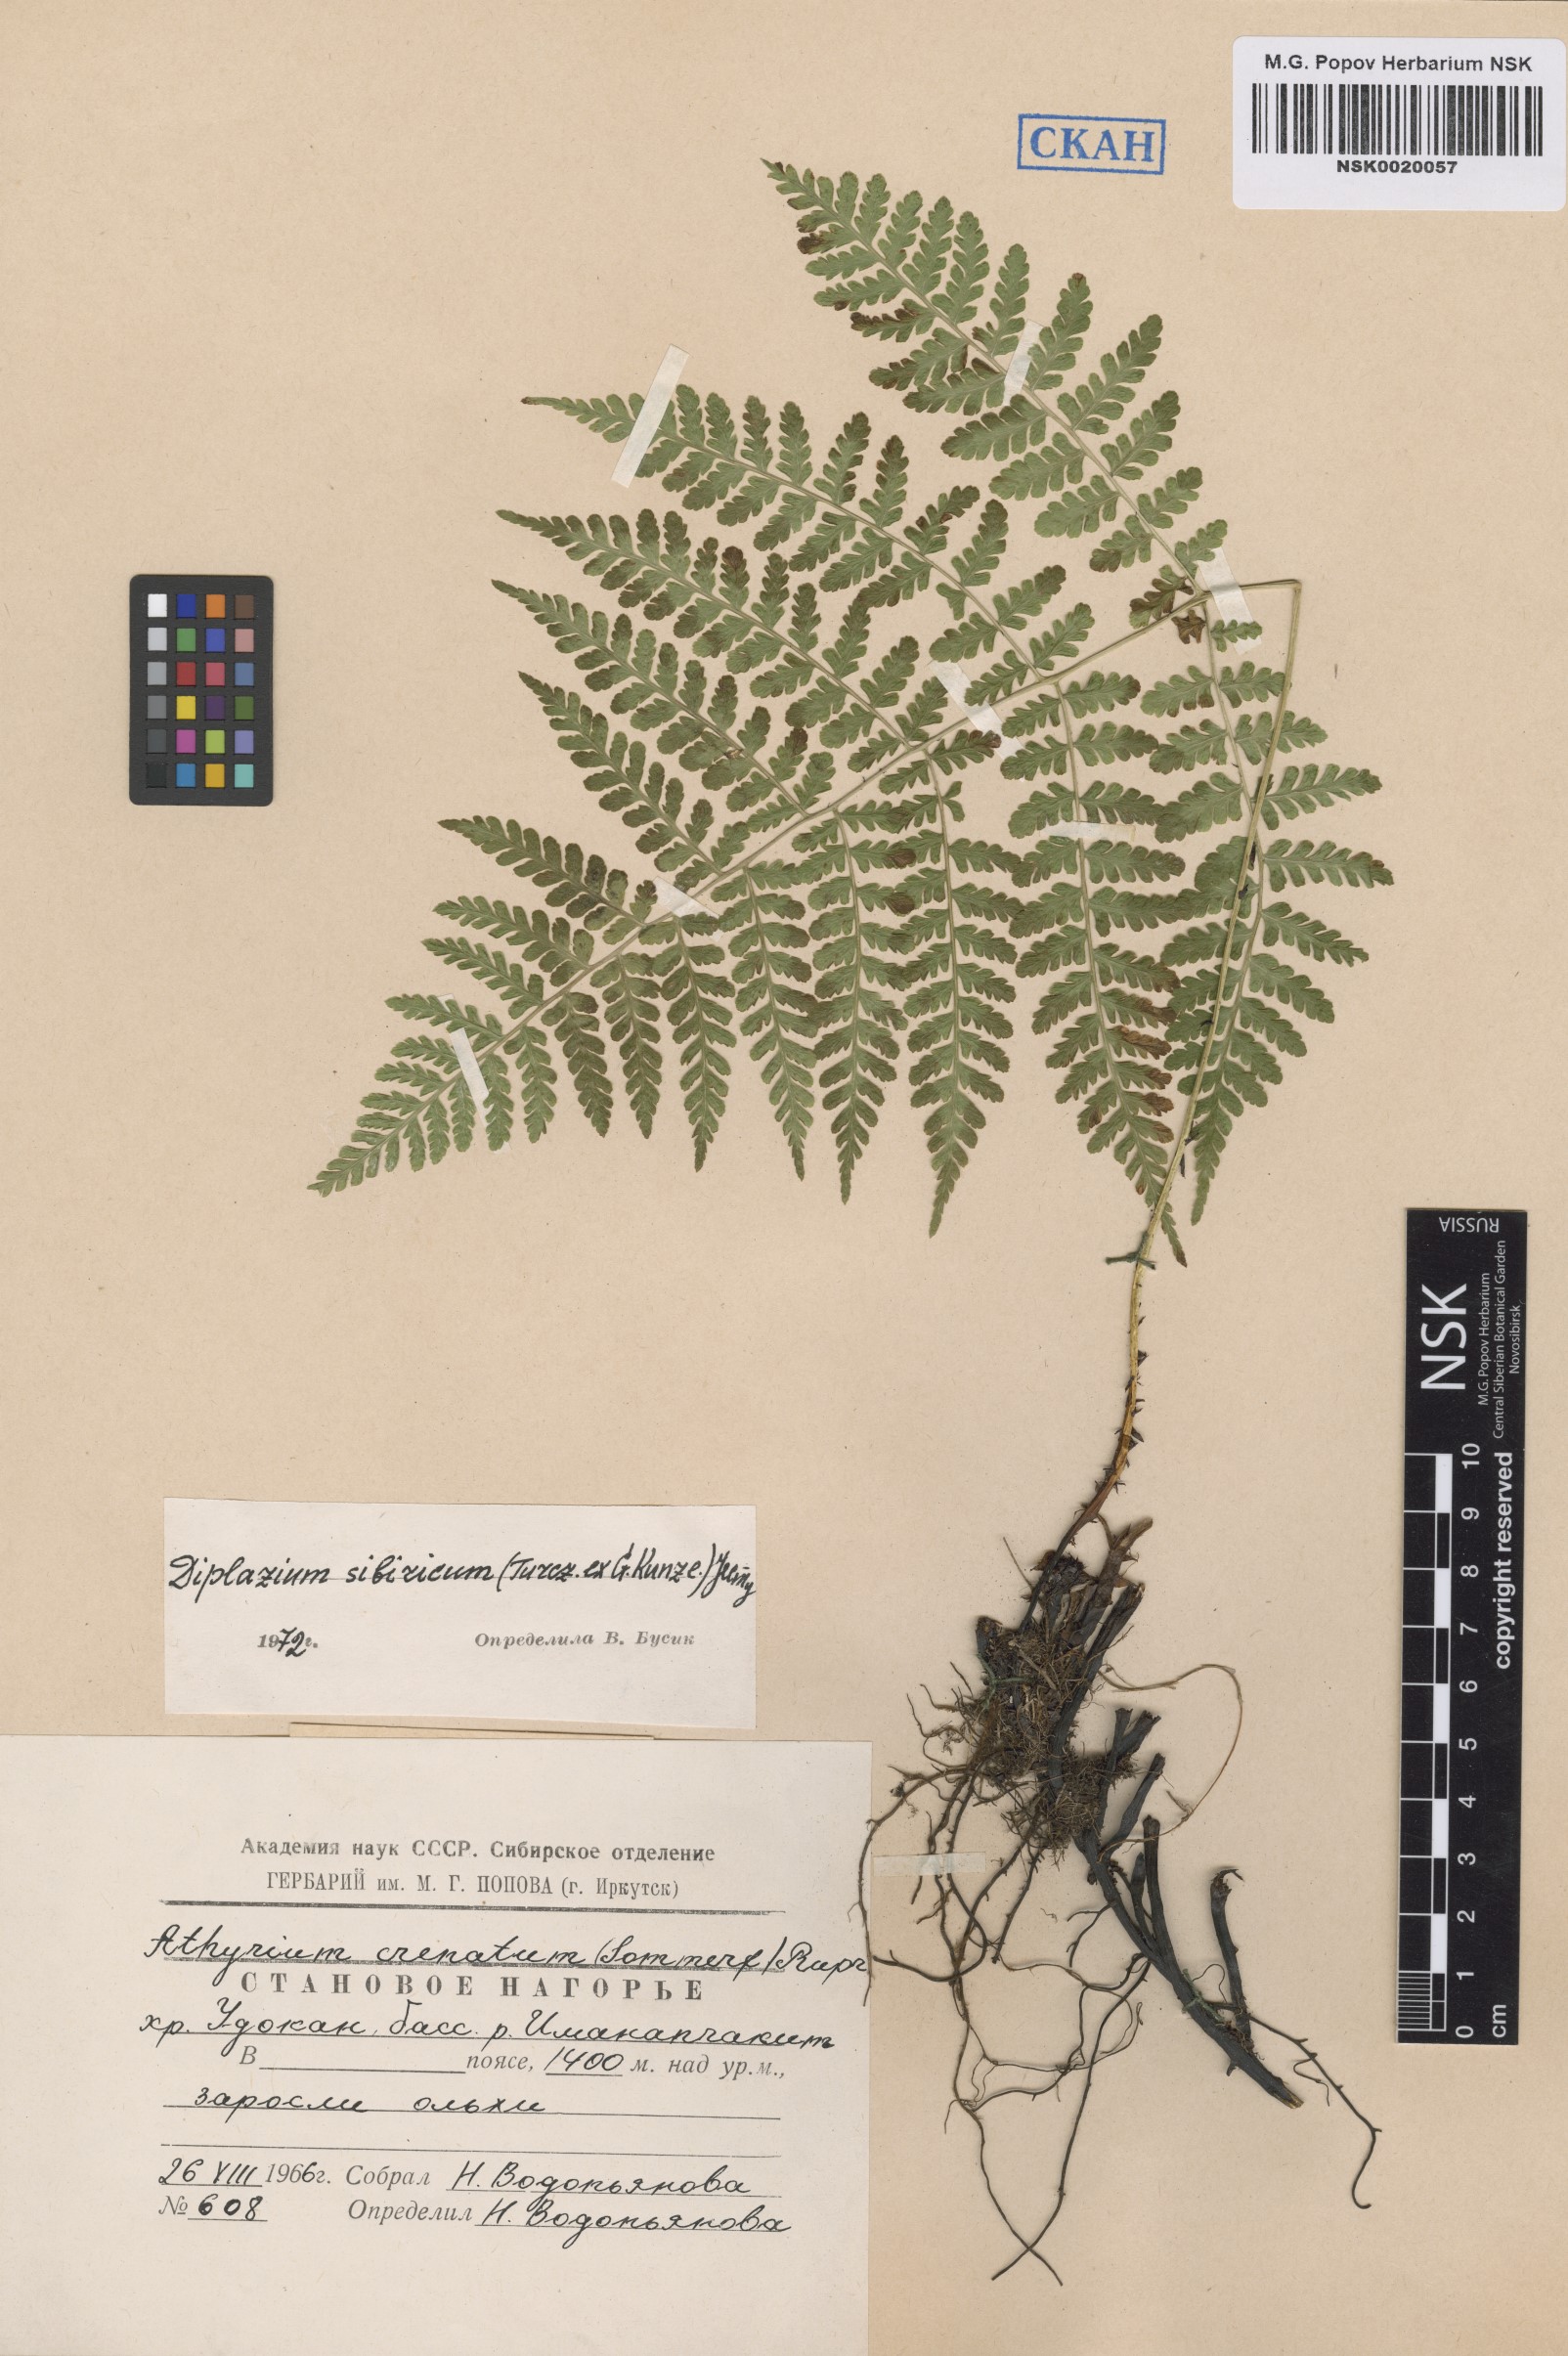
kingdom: Plantae
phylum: Tracheophyta
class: Polypodiopsida
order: Polypodiales
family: Athyriaceae
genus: Diplazium
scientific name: Diplazium sibiricum
